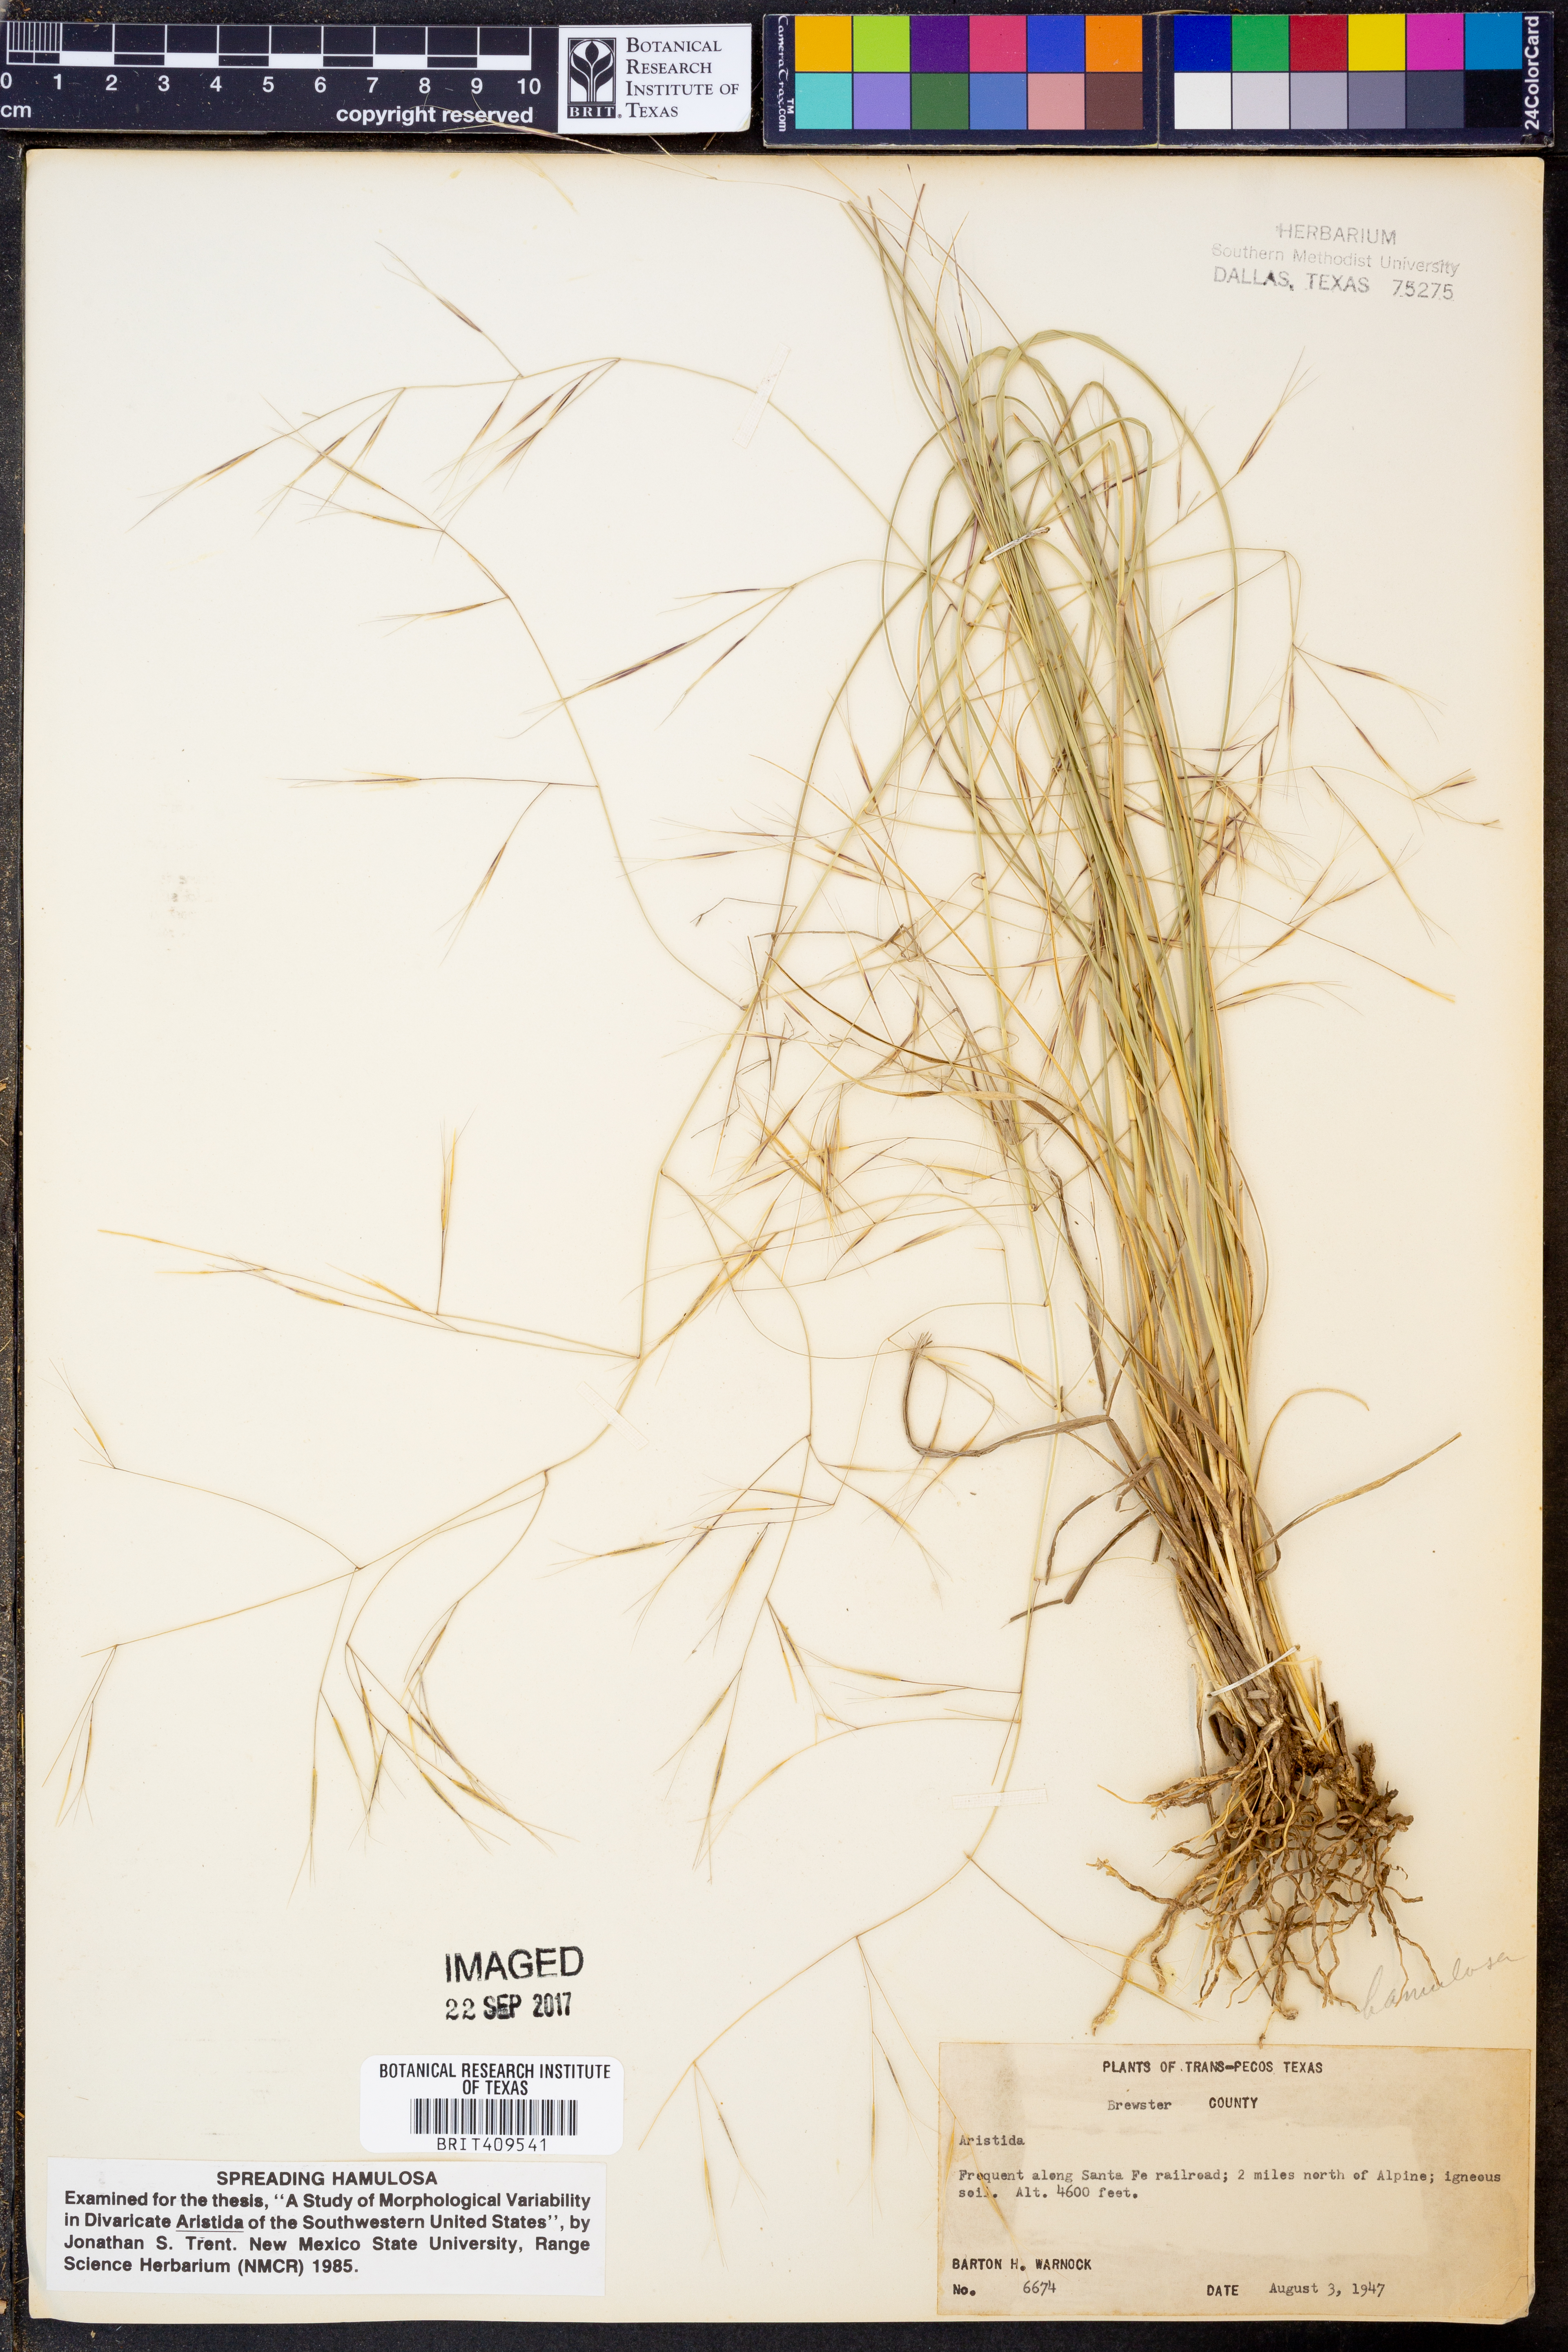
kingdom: Plantae
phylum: Tracheophyta
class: Liliopsida
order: Poales
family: Poaceae
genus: Aristida
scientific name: Aristida
